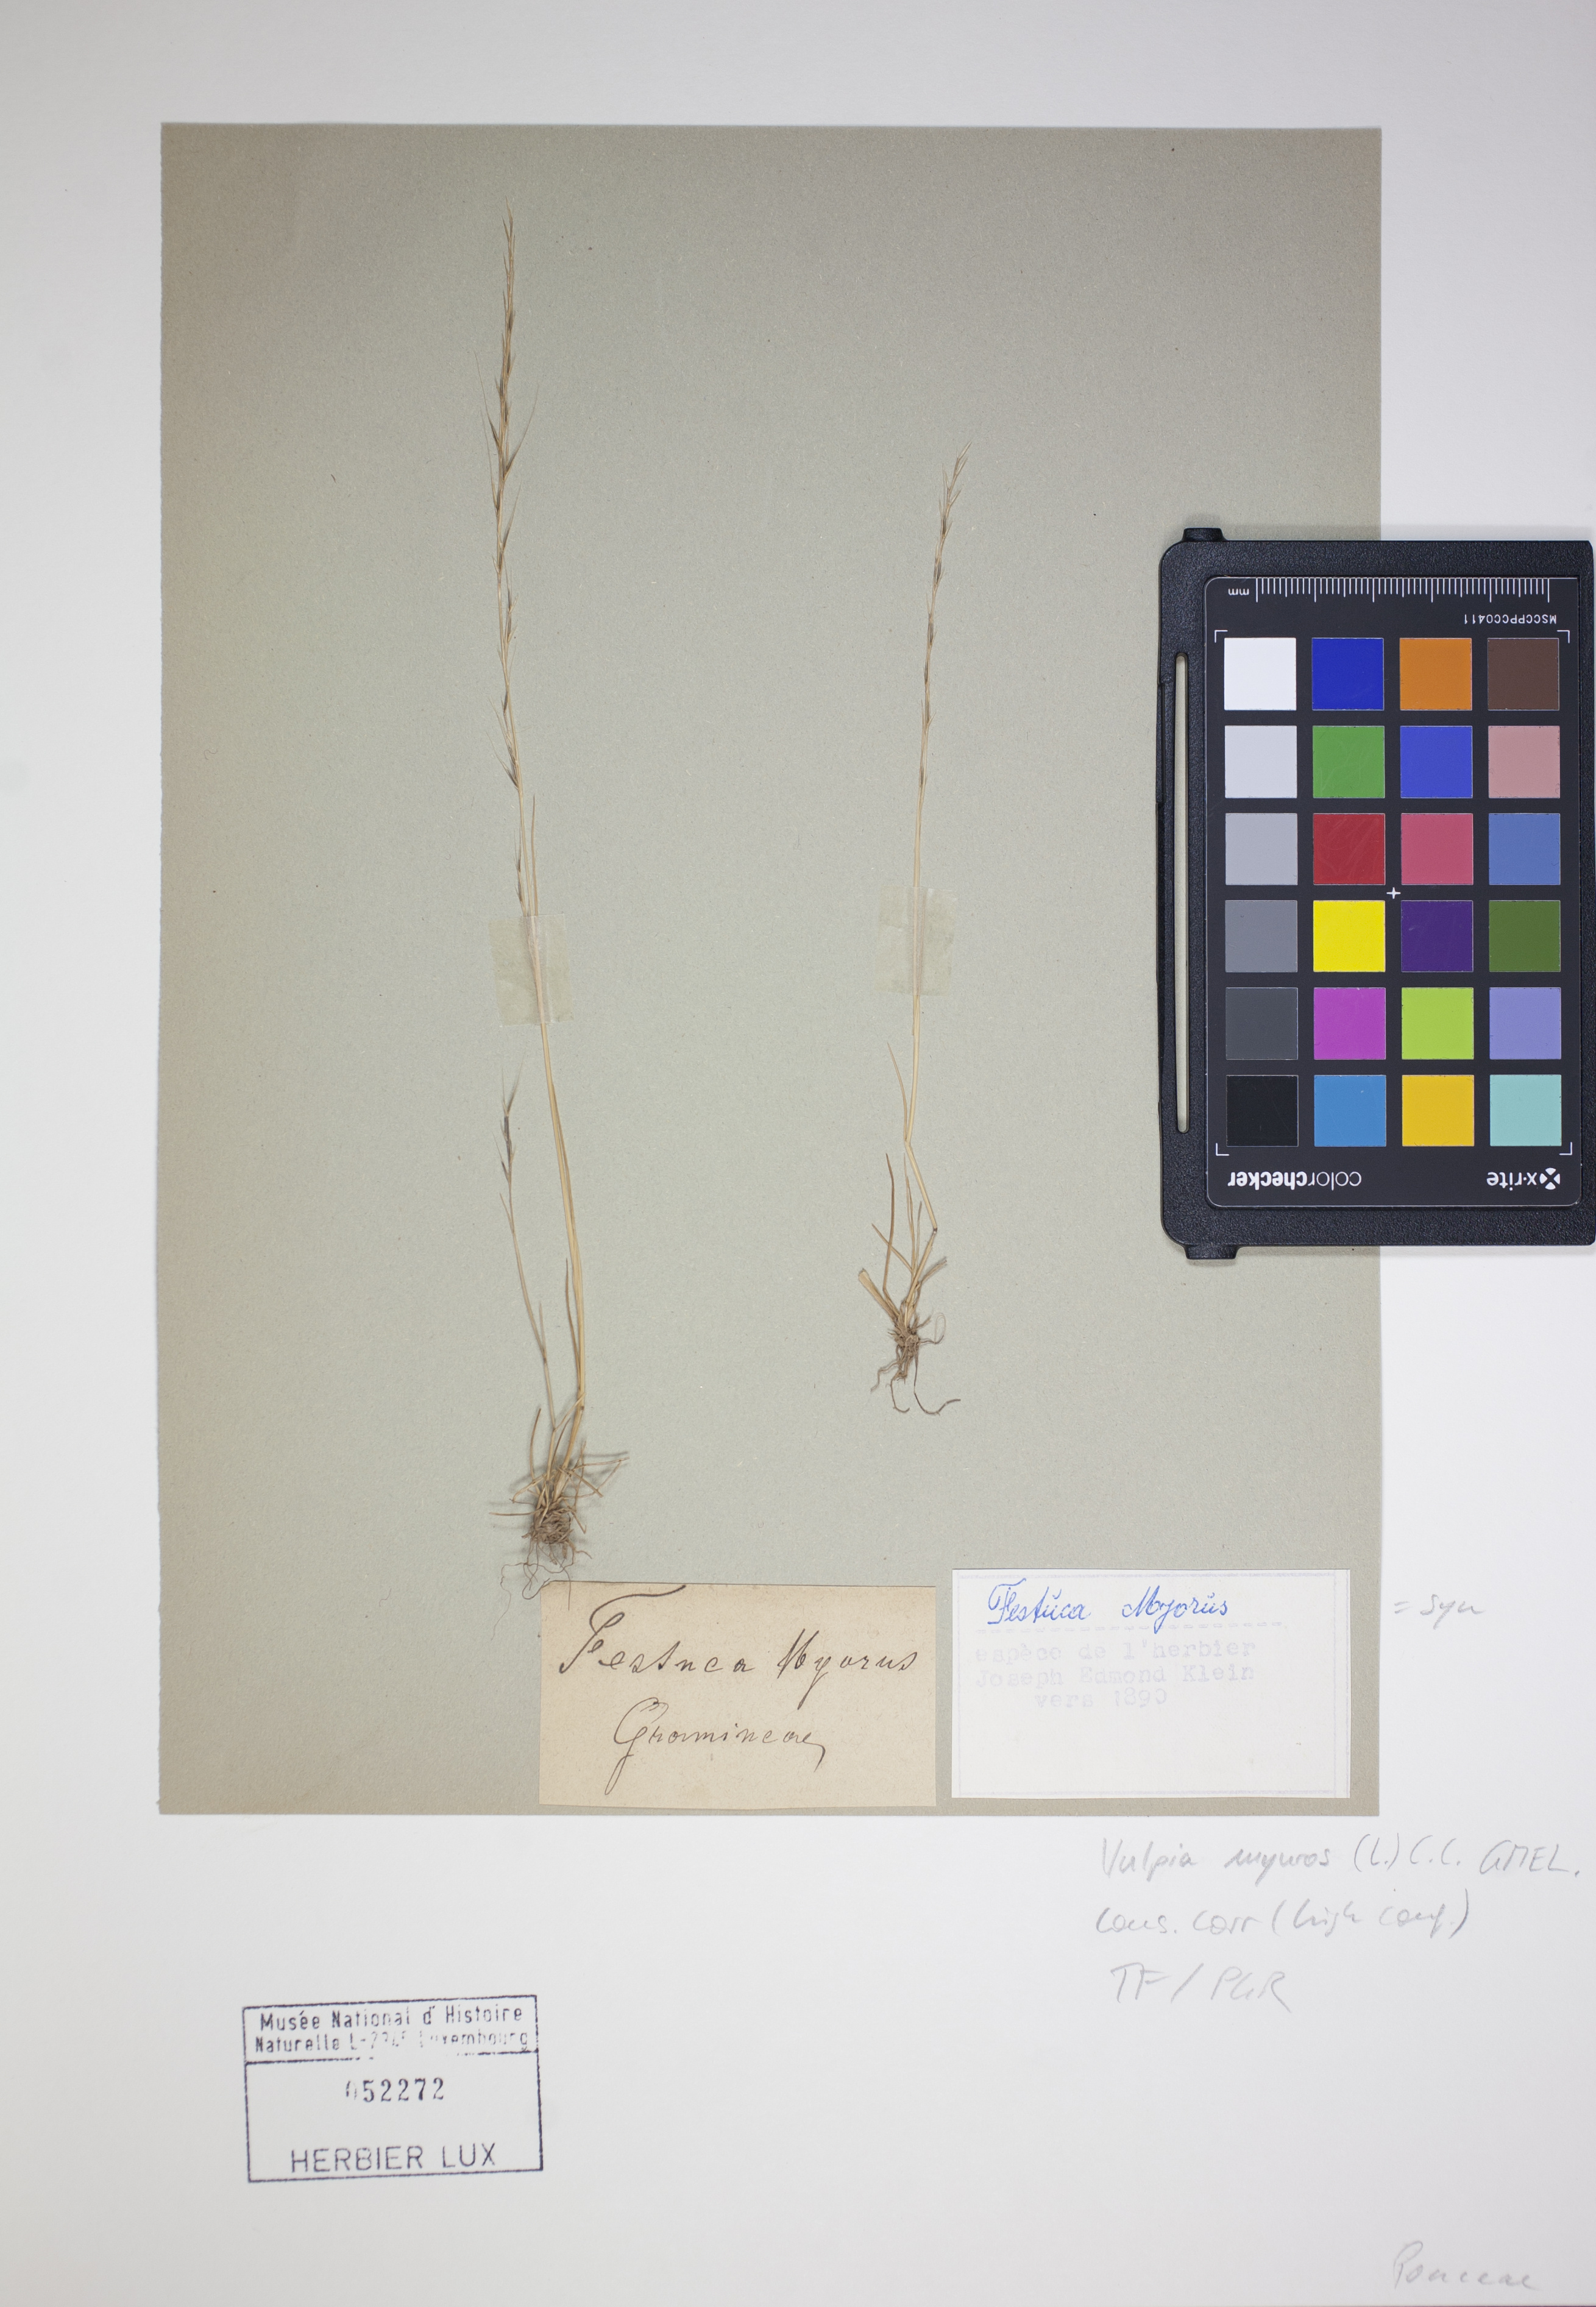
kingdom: Plantae
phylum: Tracheophyta
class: Liliopsida
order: Poales
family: Poaceae
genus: Festuca
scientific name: Festuca myuros
